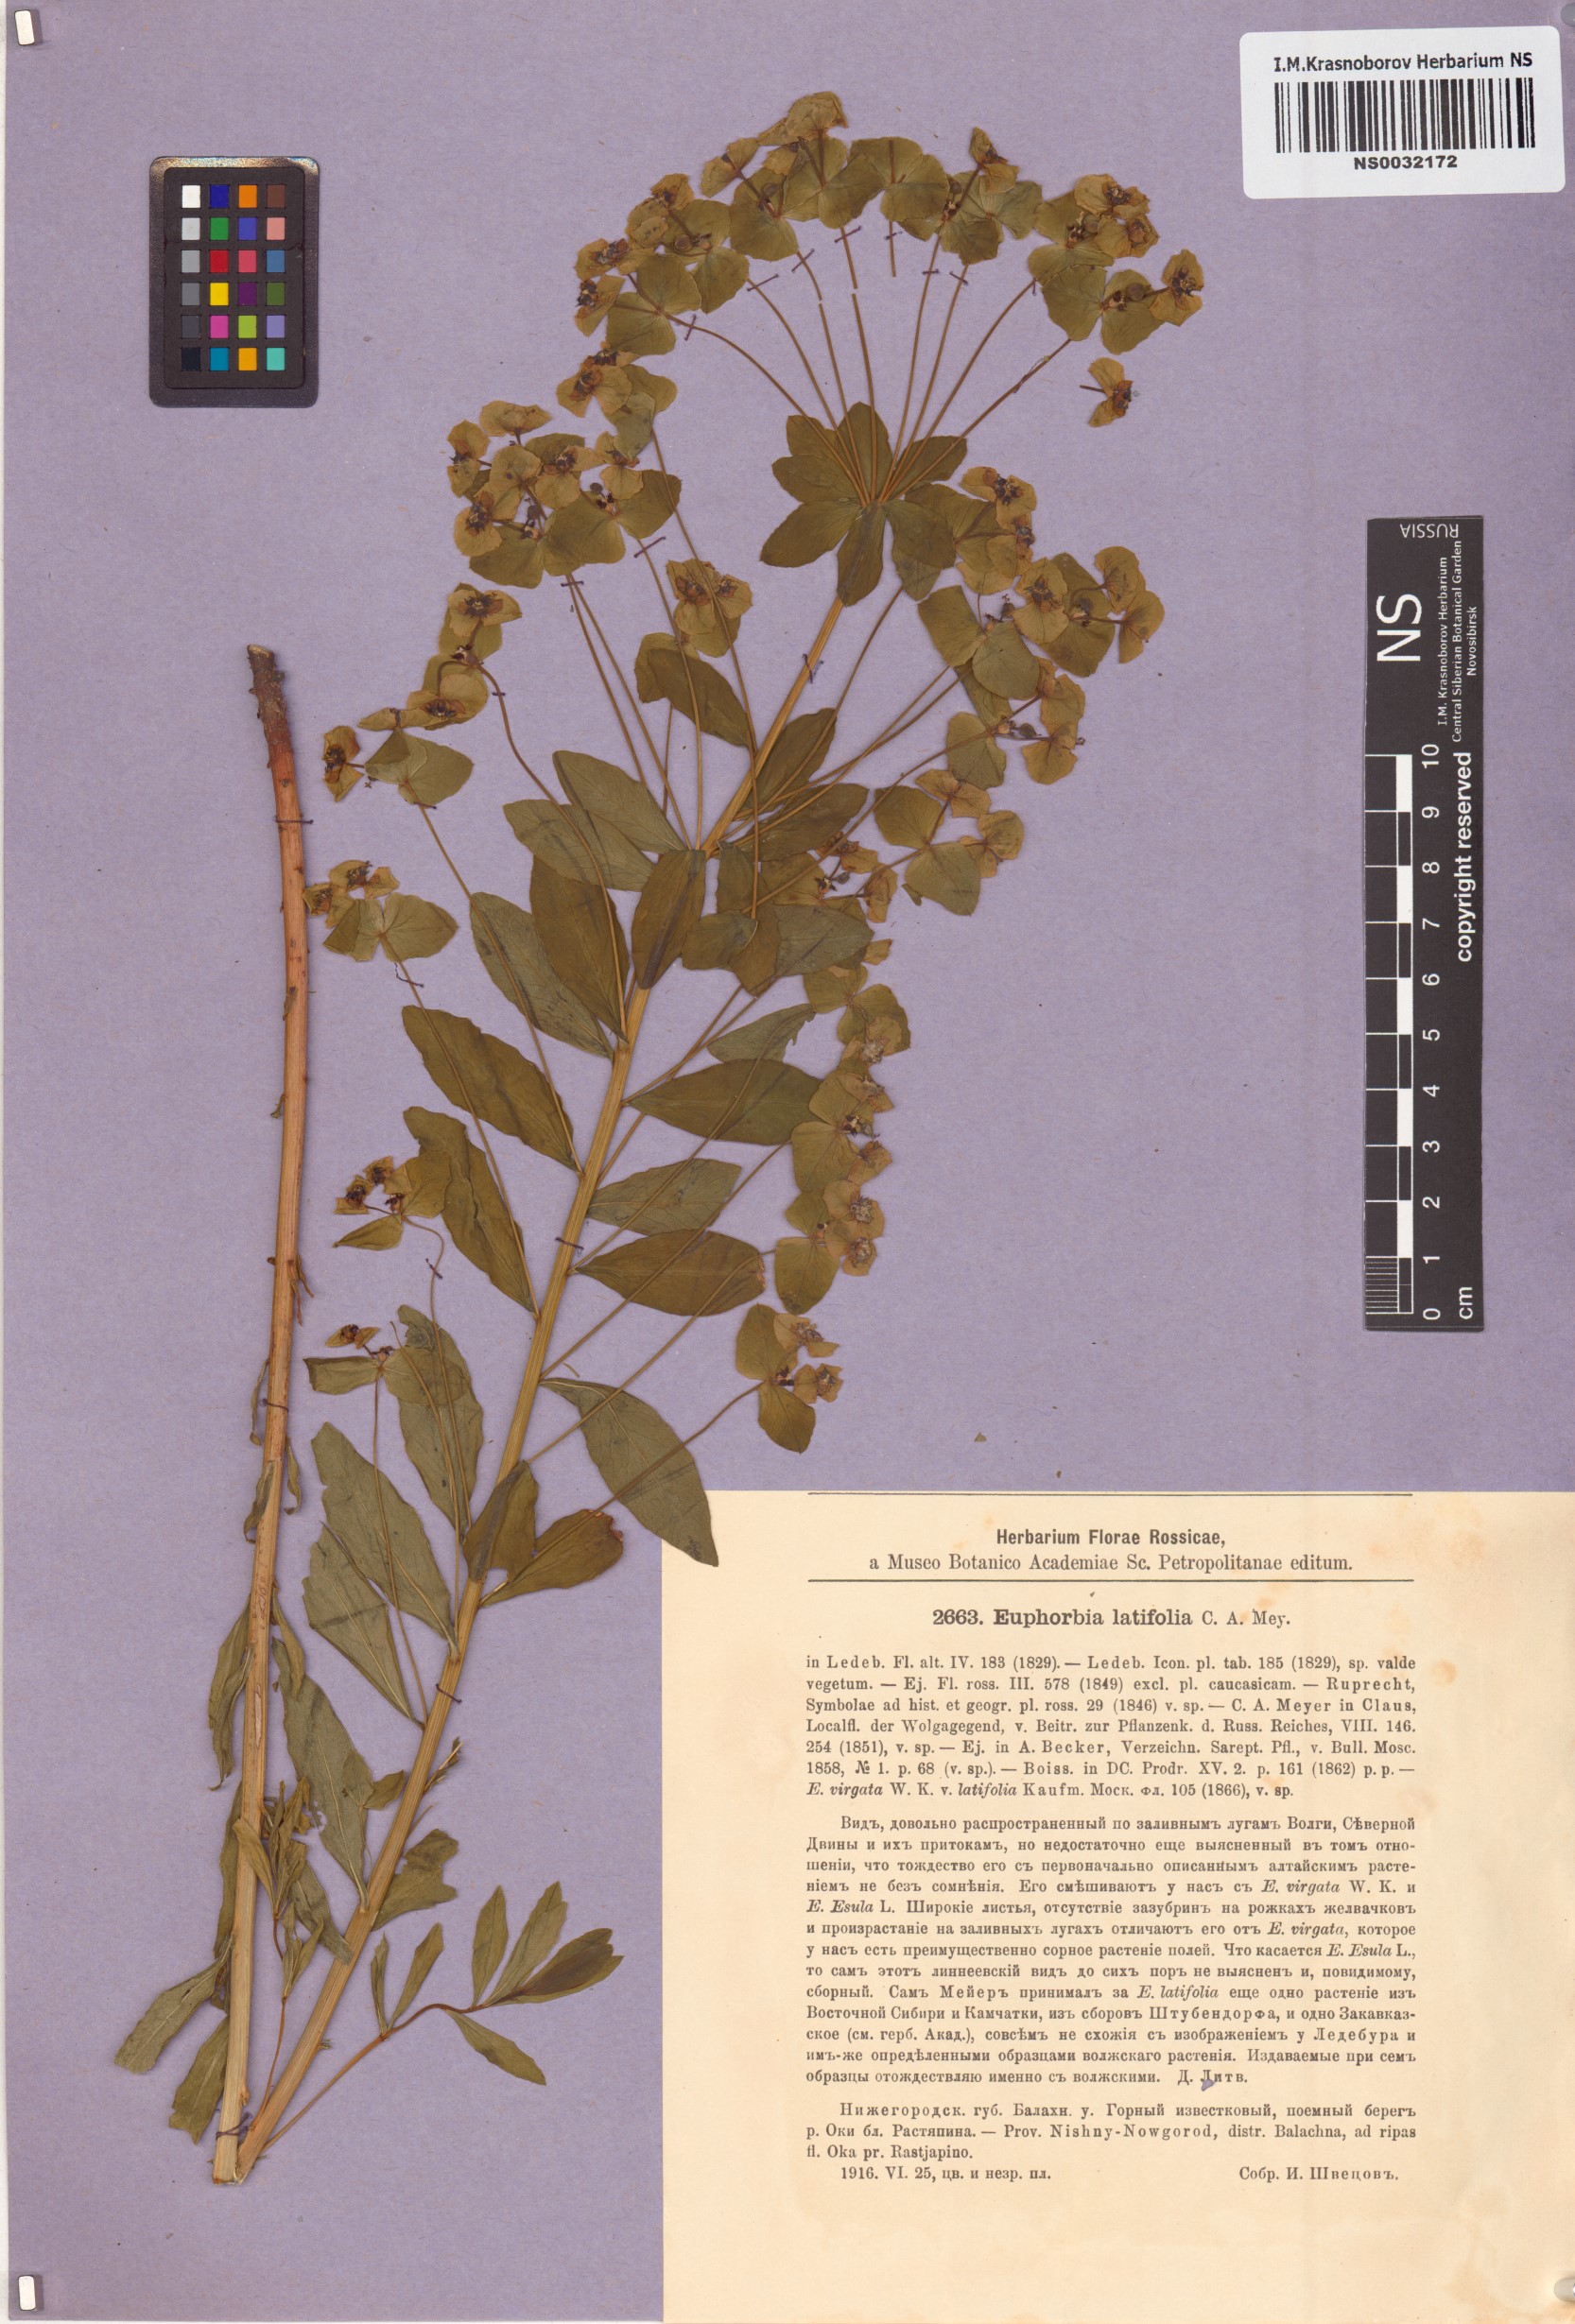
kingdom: Plantae
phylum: Tracheophyta
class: Magnoliopsida
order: Malpighiales
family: Euphorbiaceae
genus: Euphorbia
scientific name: Euphorbia latifolia
